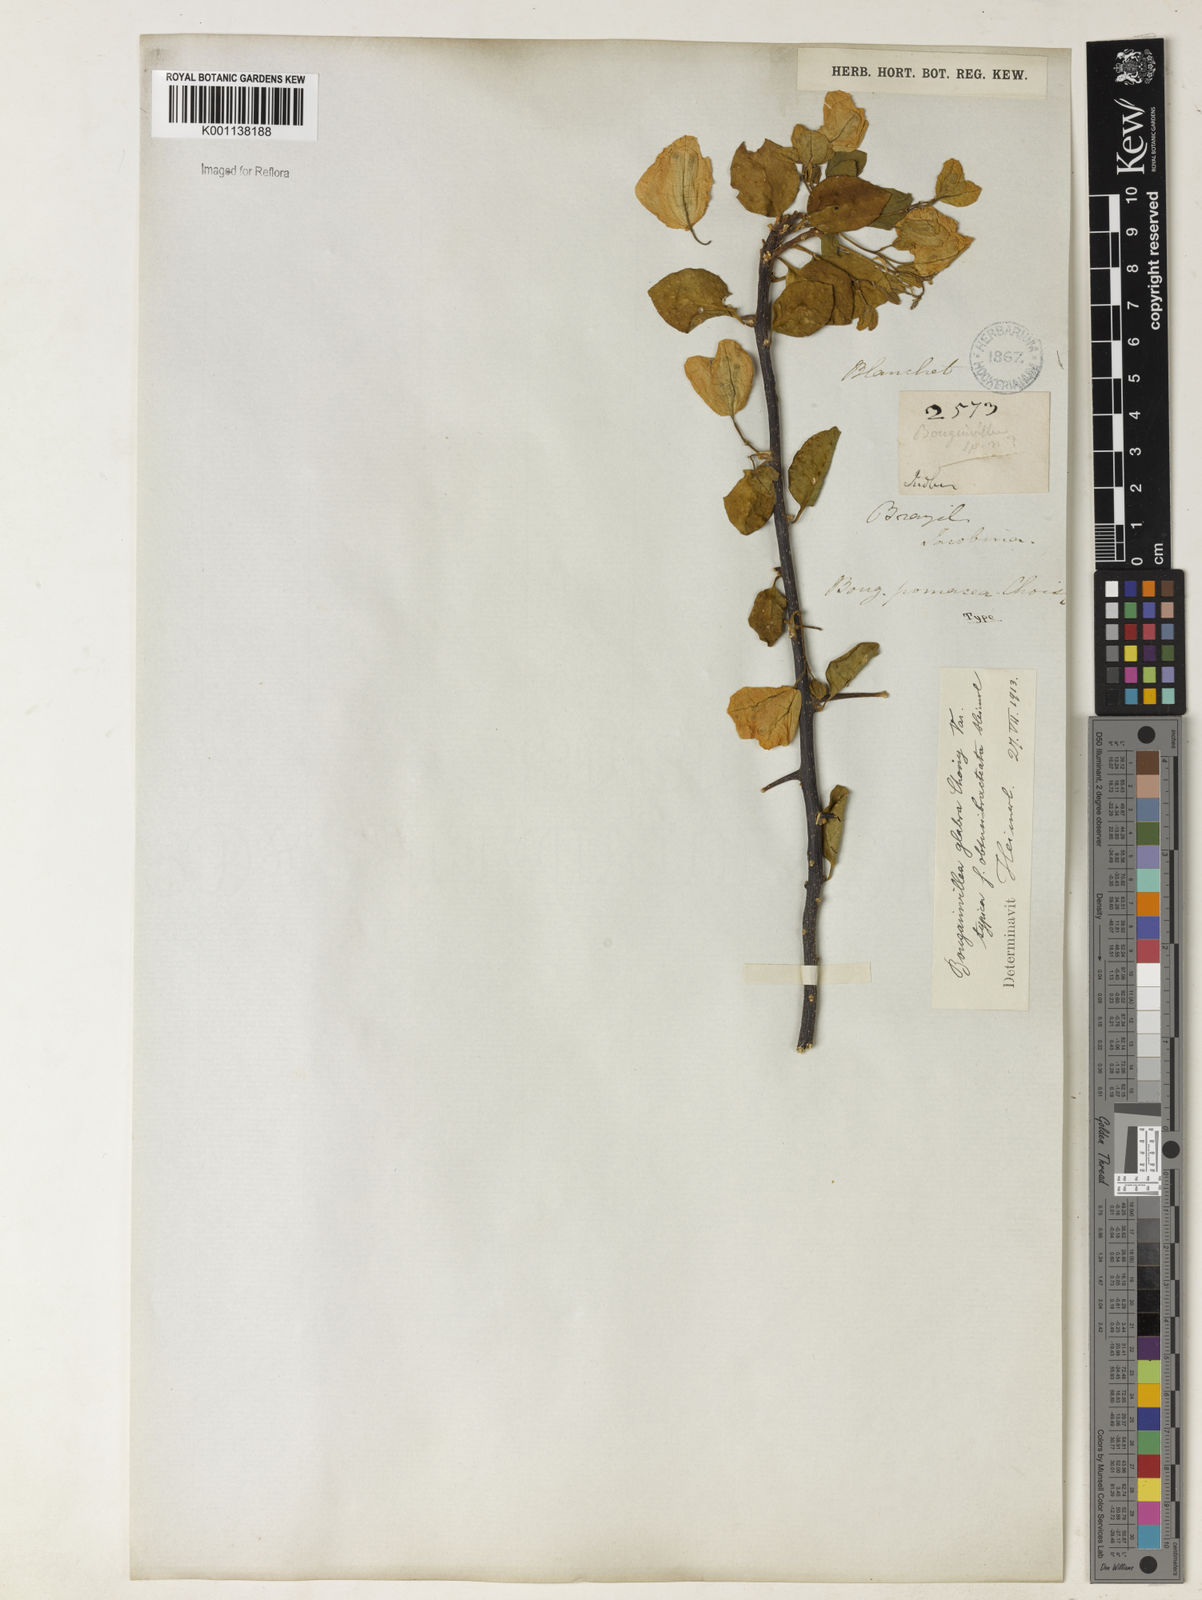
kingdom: Plantae
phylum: Tracheophyta
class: Magnoliopsida
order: Caryophyllales
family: Nyctaginaceae
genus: Bougainvillea
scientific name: Bougainvillea glabra
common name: Paperflower
